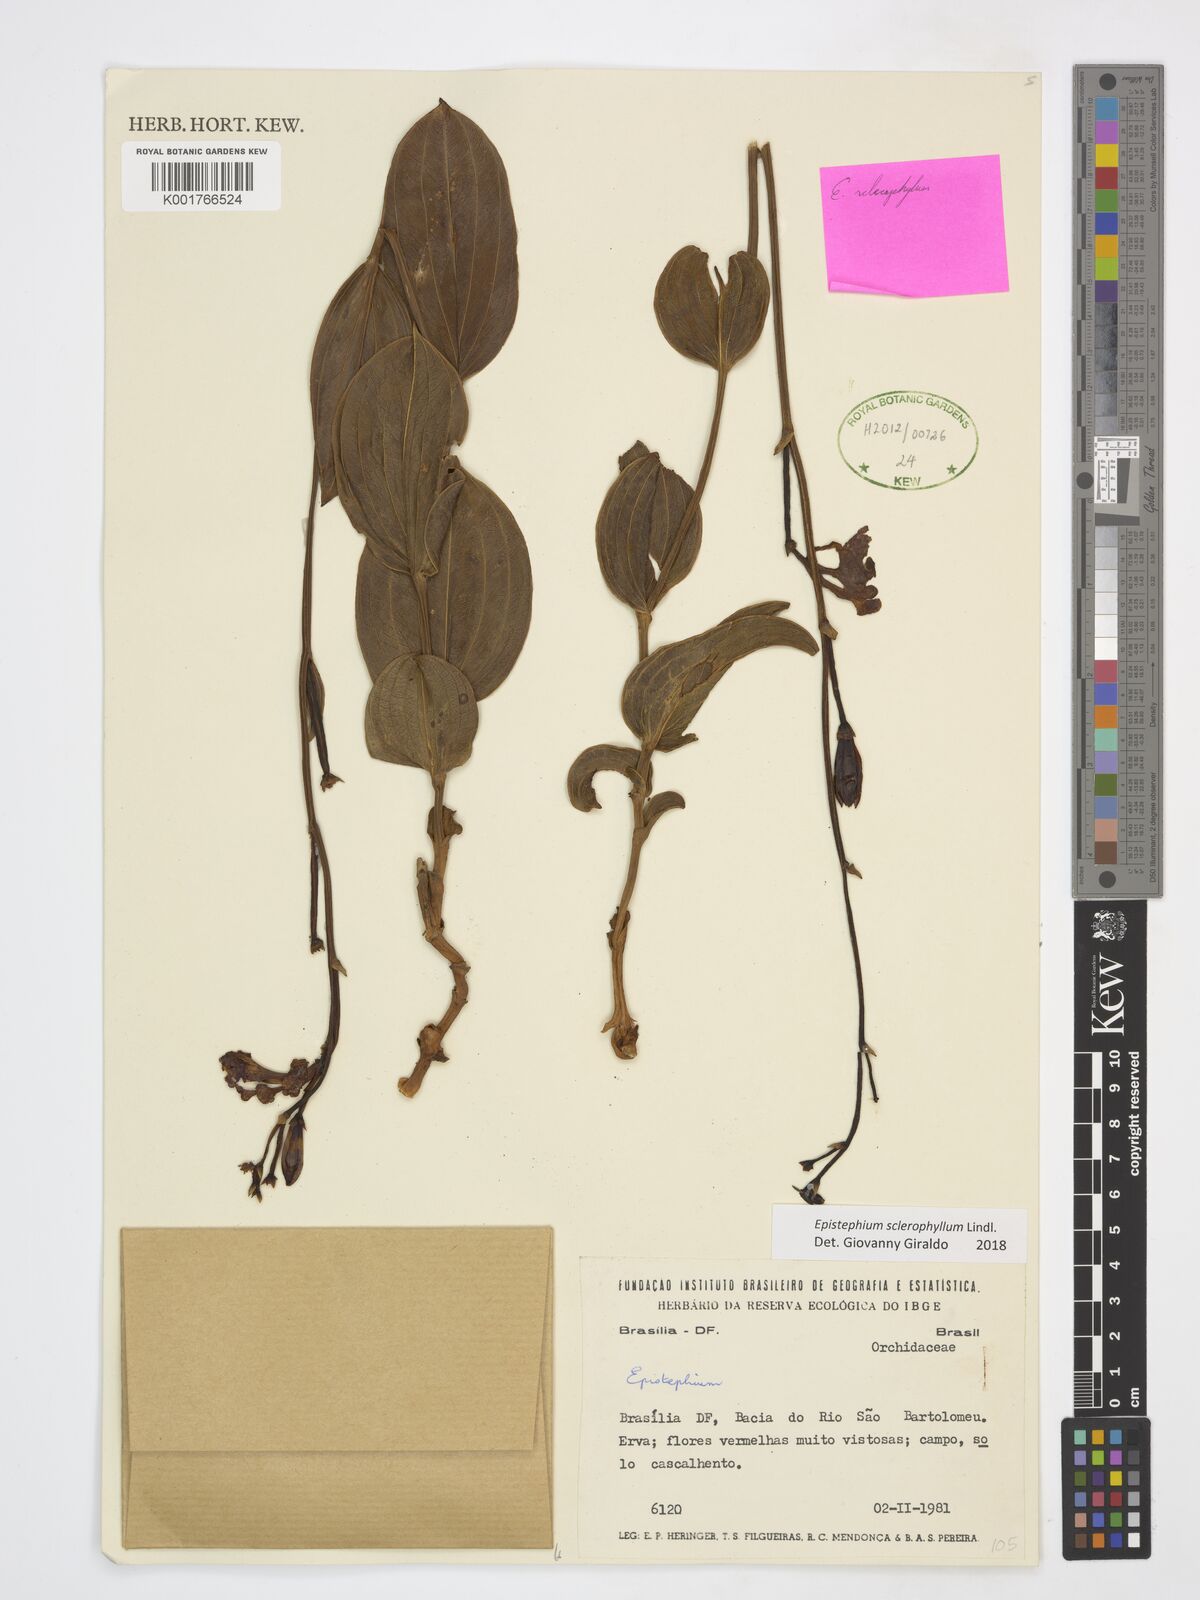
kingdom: Plantae
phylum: Tracheophyta
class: Liliopsida
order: Asparagales
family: Orchidaceae
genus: Epistephium
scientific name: Epistephium sclerophyllum
